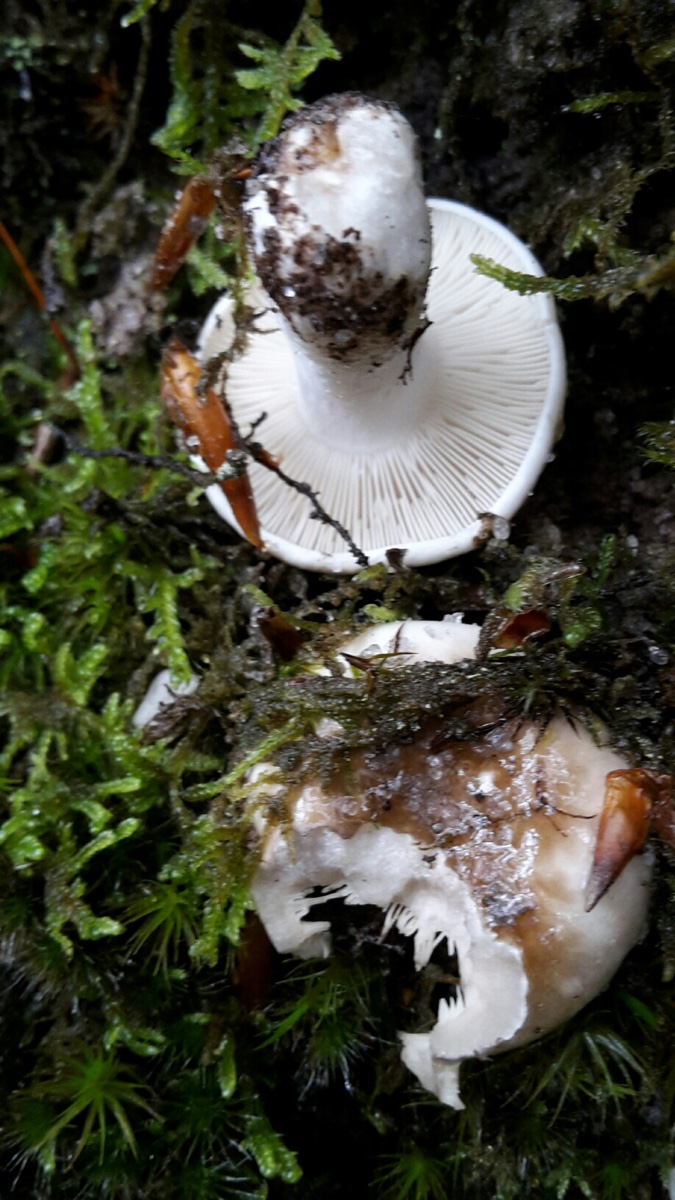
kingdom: Fungi
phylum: Basidiomycota
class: Agaricomycetes
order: Russulales
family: Russulaceae
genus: Russula
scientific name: Russula densifolia
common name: tætbladet skørhat
